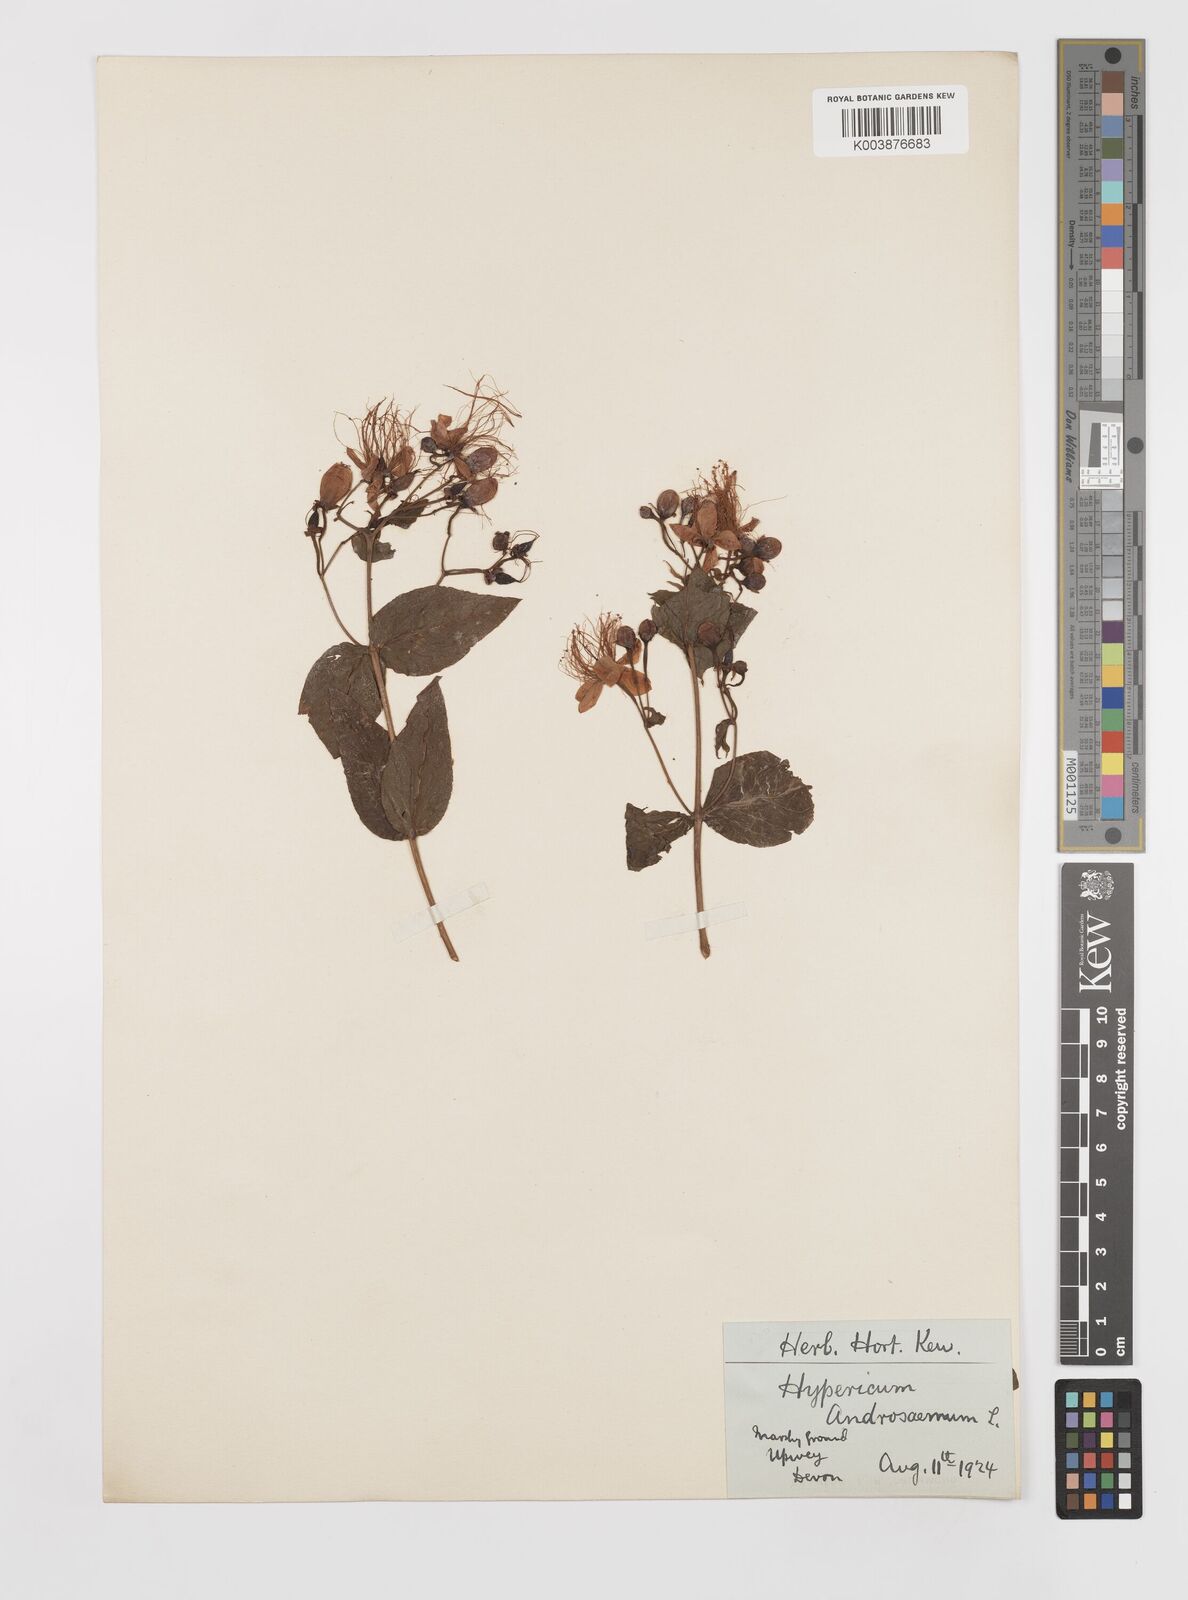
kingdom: Plantae
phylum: Tracheophyta
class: Magnoliopsida
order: Malpighiales
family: Hypericaceae
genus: Hypericum
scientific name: Hypericum hircinum
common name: Stinking tutsan
